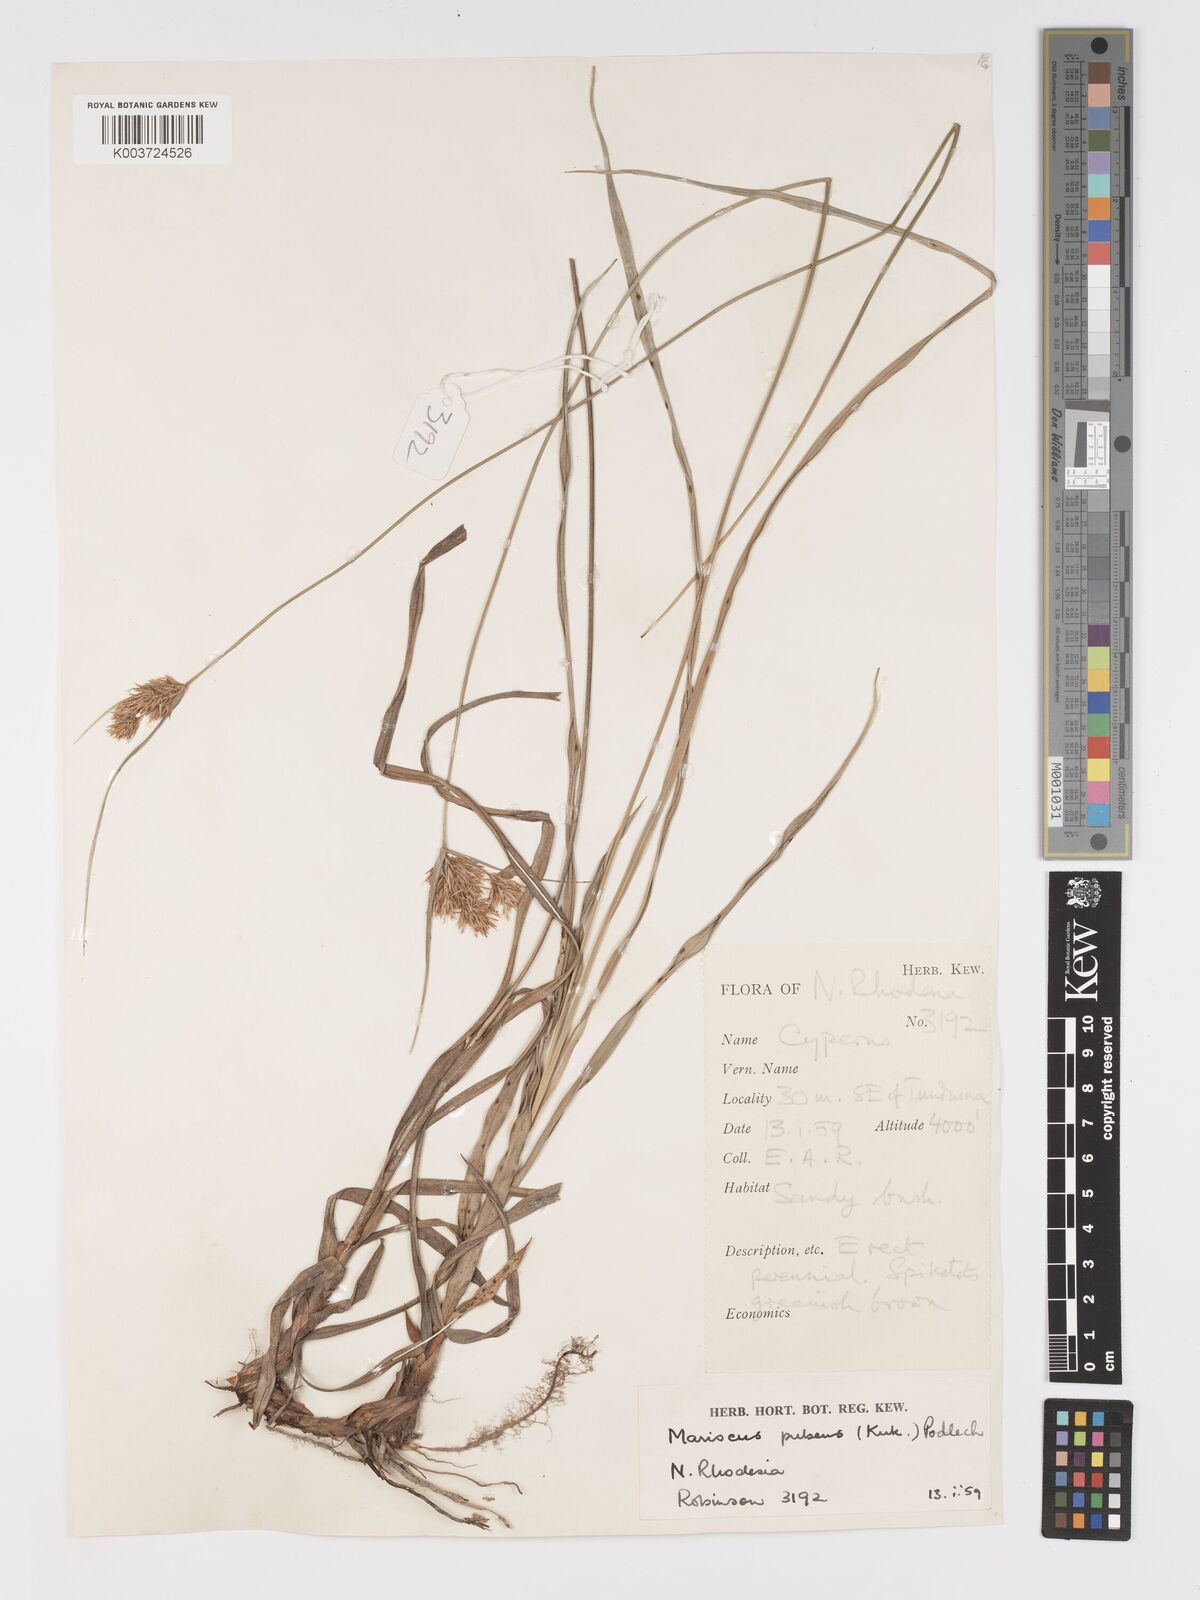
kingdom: Plantae
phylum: Tracheophyta
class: Liliopsida
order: Poales
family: Cyperaceae
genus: Cyperus
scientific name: Cyperus pubens
